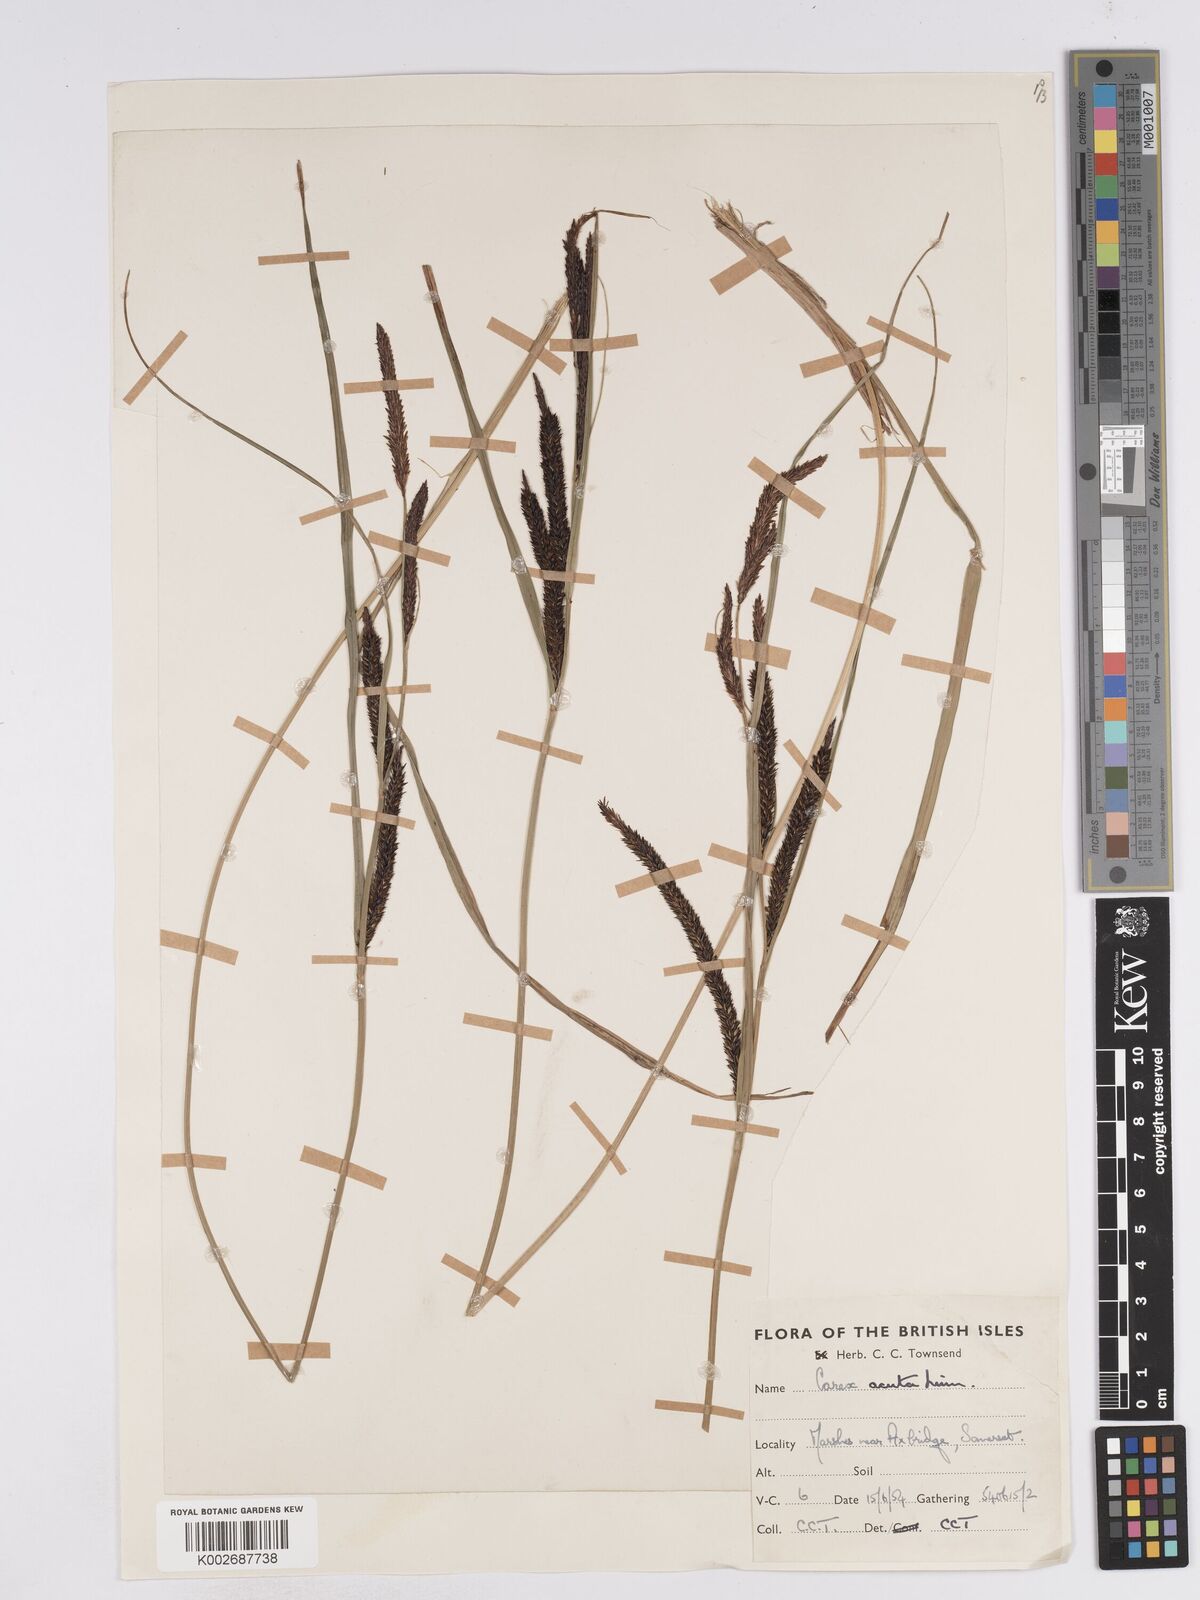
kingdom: Plantae
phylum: Tracheophyta
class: Liliopsida
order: Poales
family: Cyperaceae
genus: Carex
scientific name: Carex acuta
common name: Slender tufted-sedge
